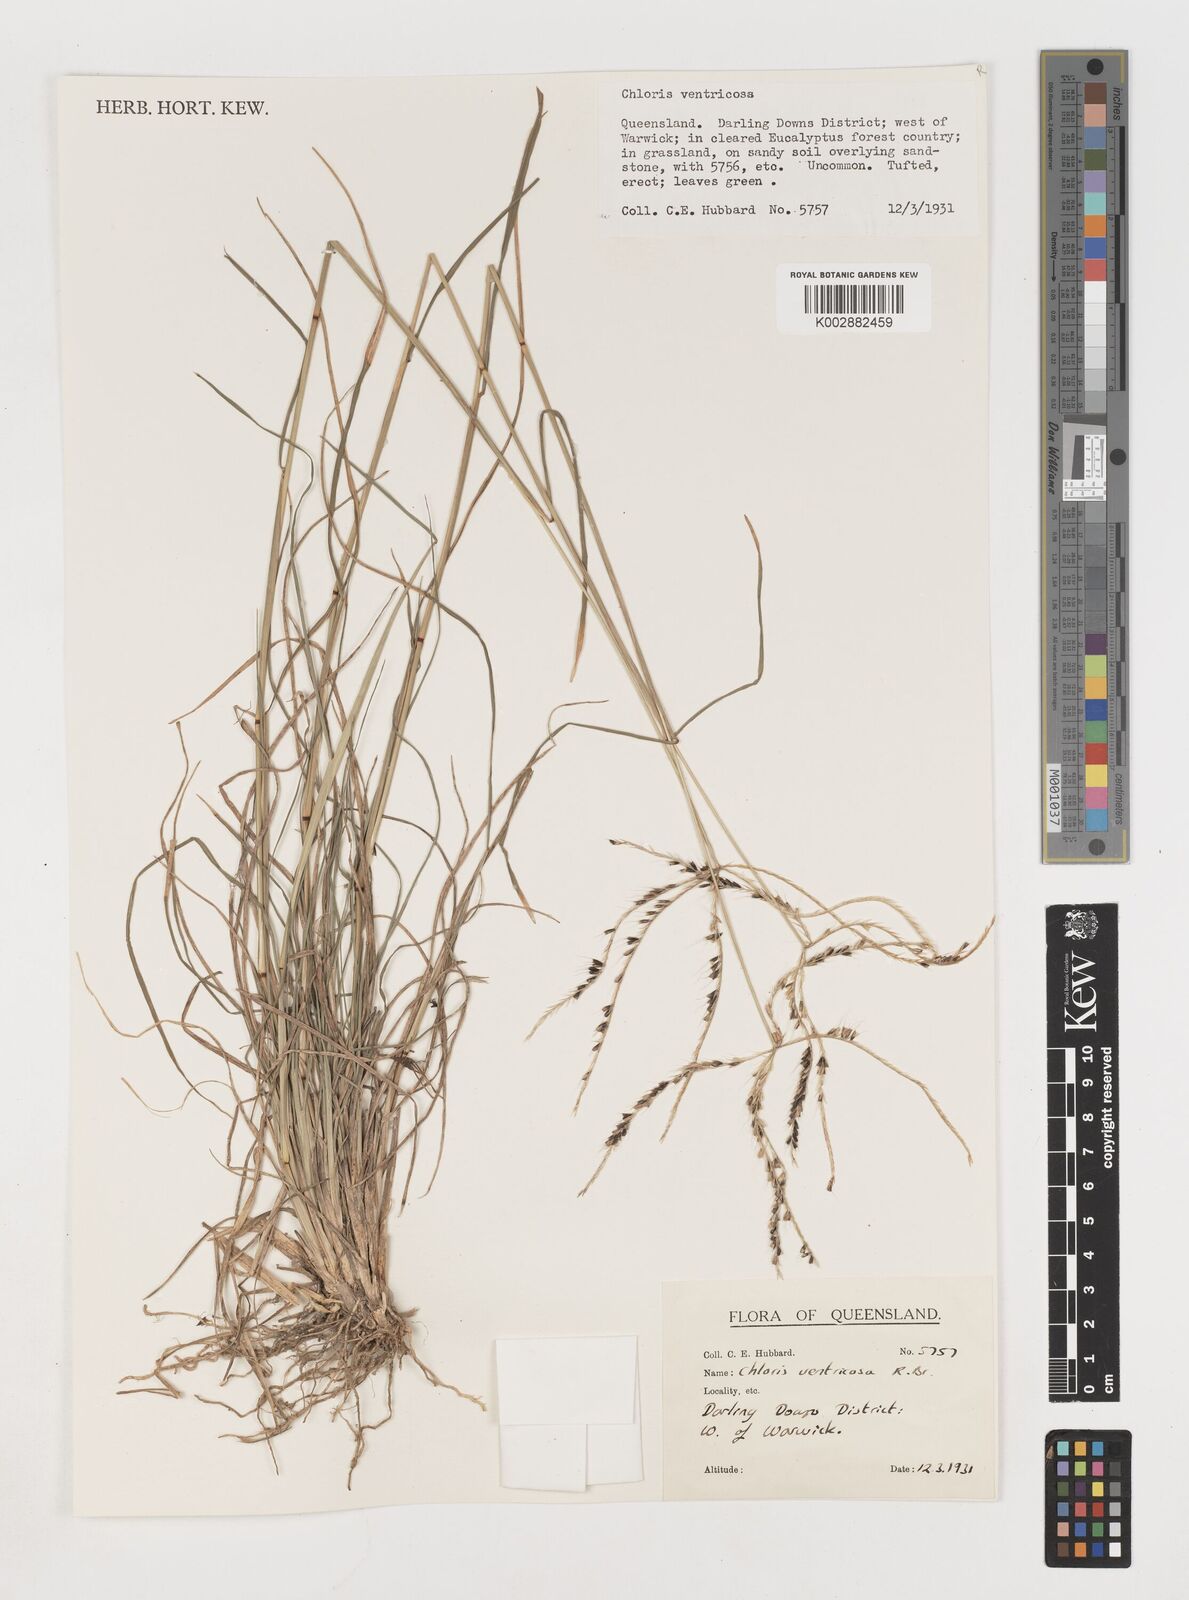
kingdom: Plantae
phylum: Tracheophyta
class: Liliopsida
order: Poales
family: Poaceae
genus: Chloris
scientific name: Chloris ventricosa
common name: Australian windmill grass
